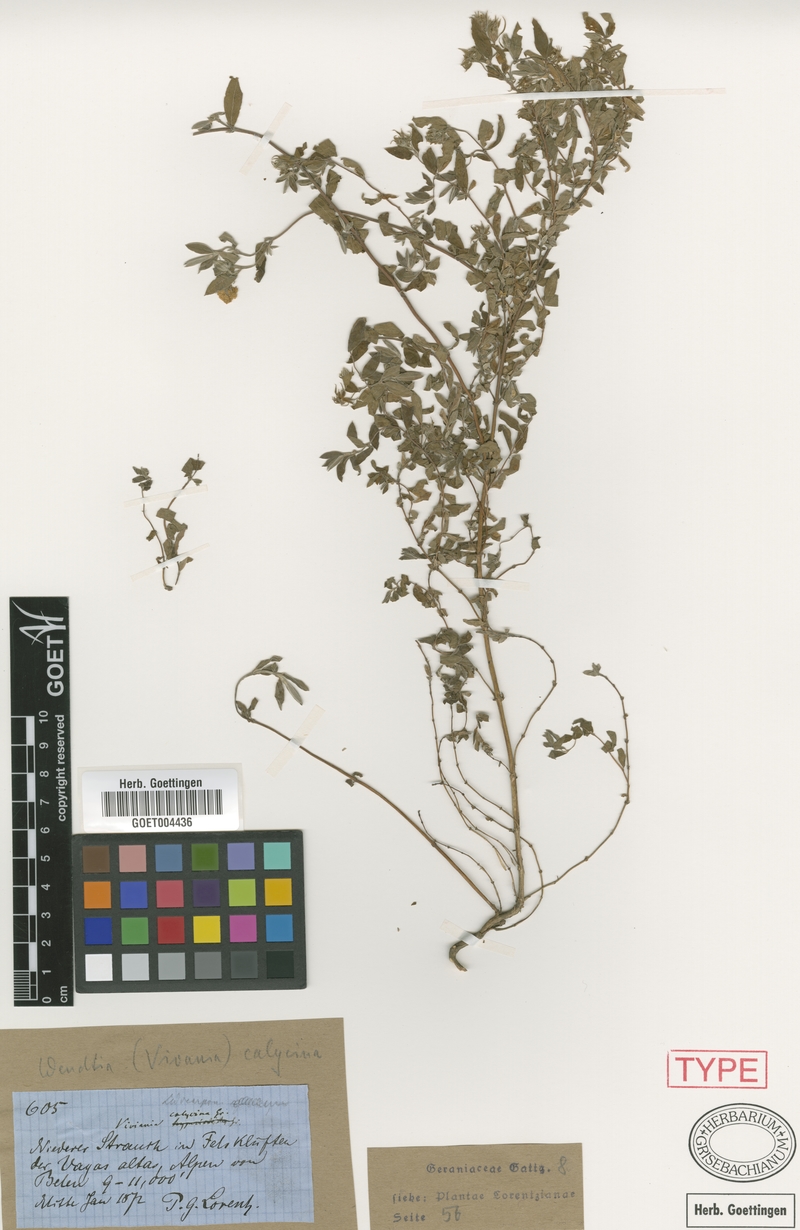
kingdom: Plantae
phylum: Tracheophyta
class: Magnoliopsida
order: Geraniales
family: Vivianiaceae
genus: Wendtia
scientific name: Wendtia calycina
